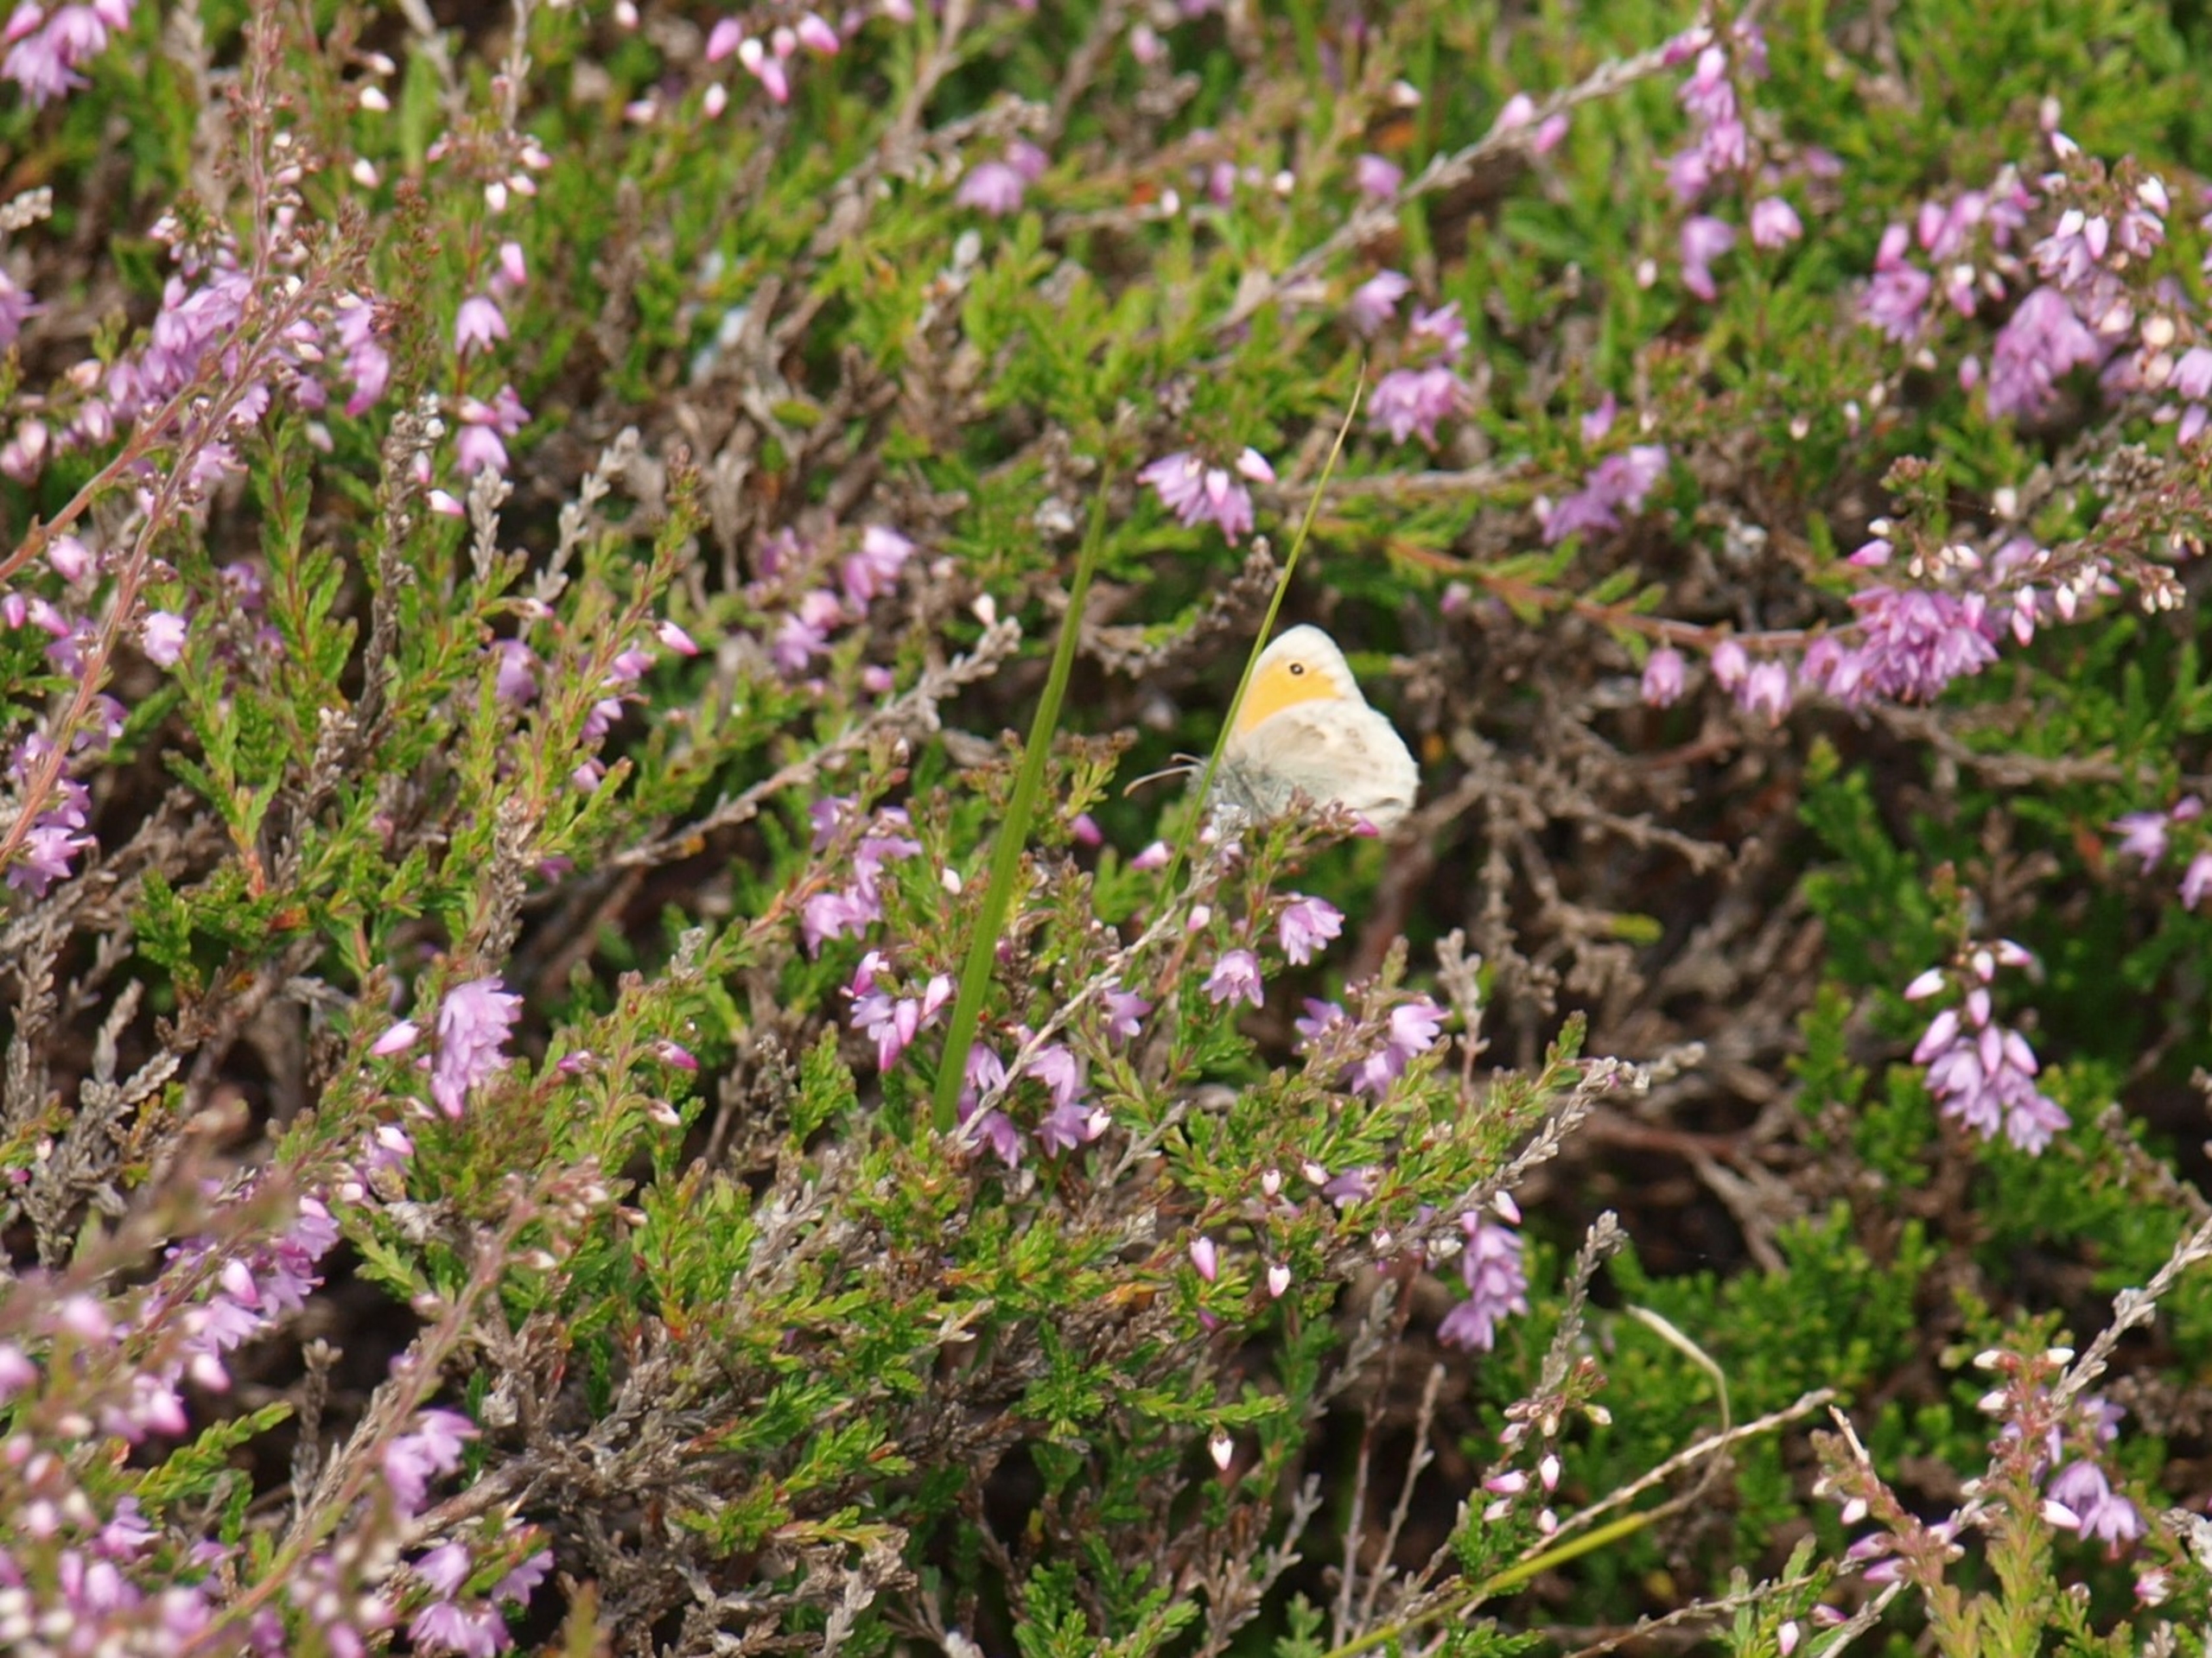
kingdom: Animalia
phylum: Arthropoda
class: Insecta
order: Lepidoptera
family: Nymphalidae
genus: Coenonympha
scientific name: Coenonympha pamphilus
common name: Okkergul randøje
